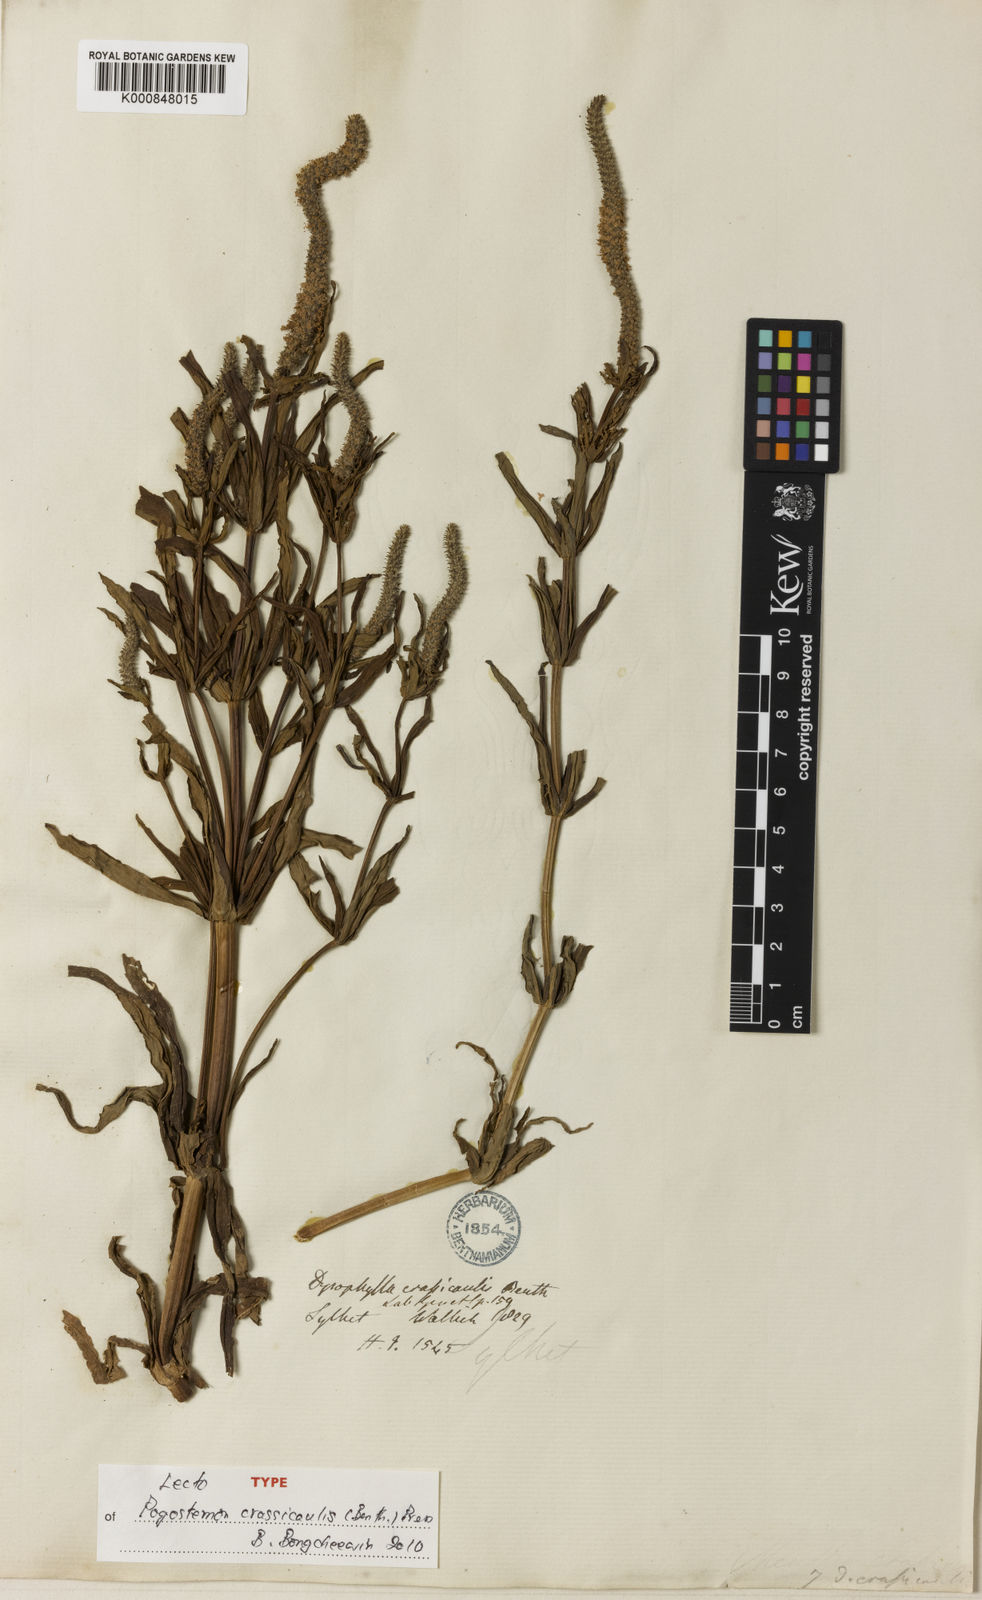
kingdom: Plantae
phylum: Tracheophyta
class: Magnoliopsida
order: Lamiales
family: Lamiaceae
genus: Pogostemon
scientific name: Pogostemon crassicaulis
